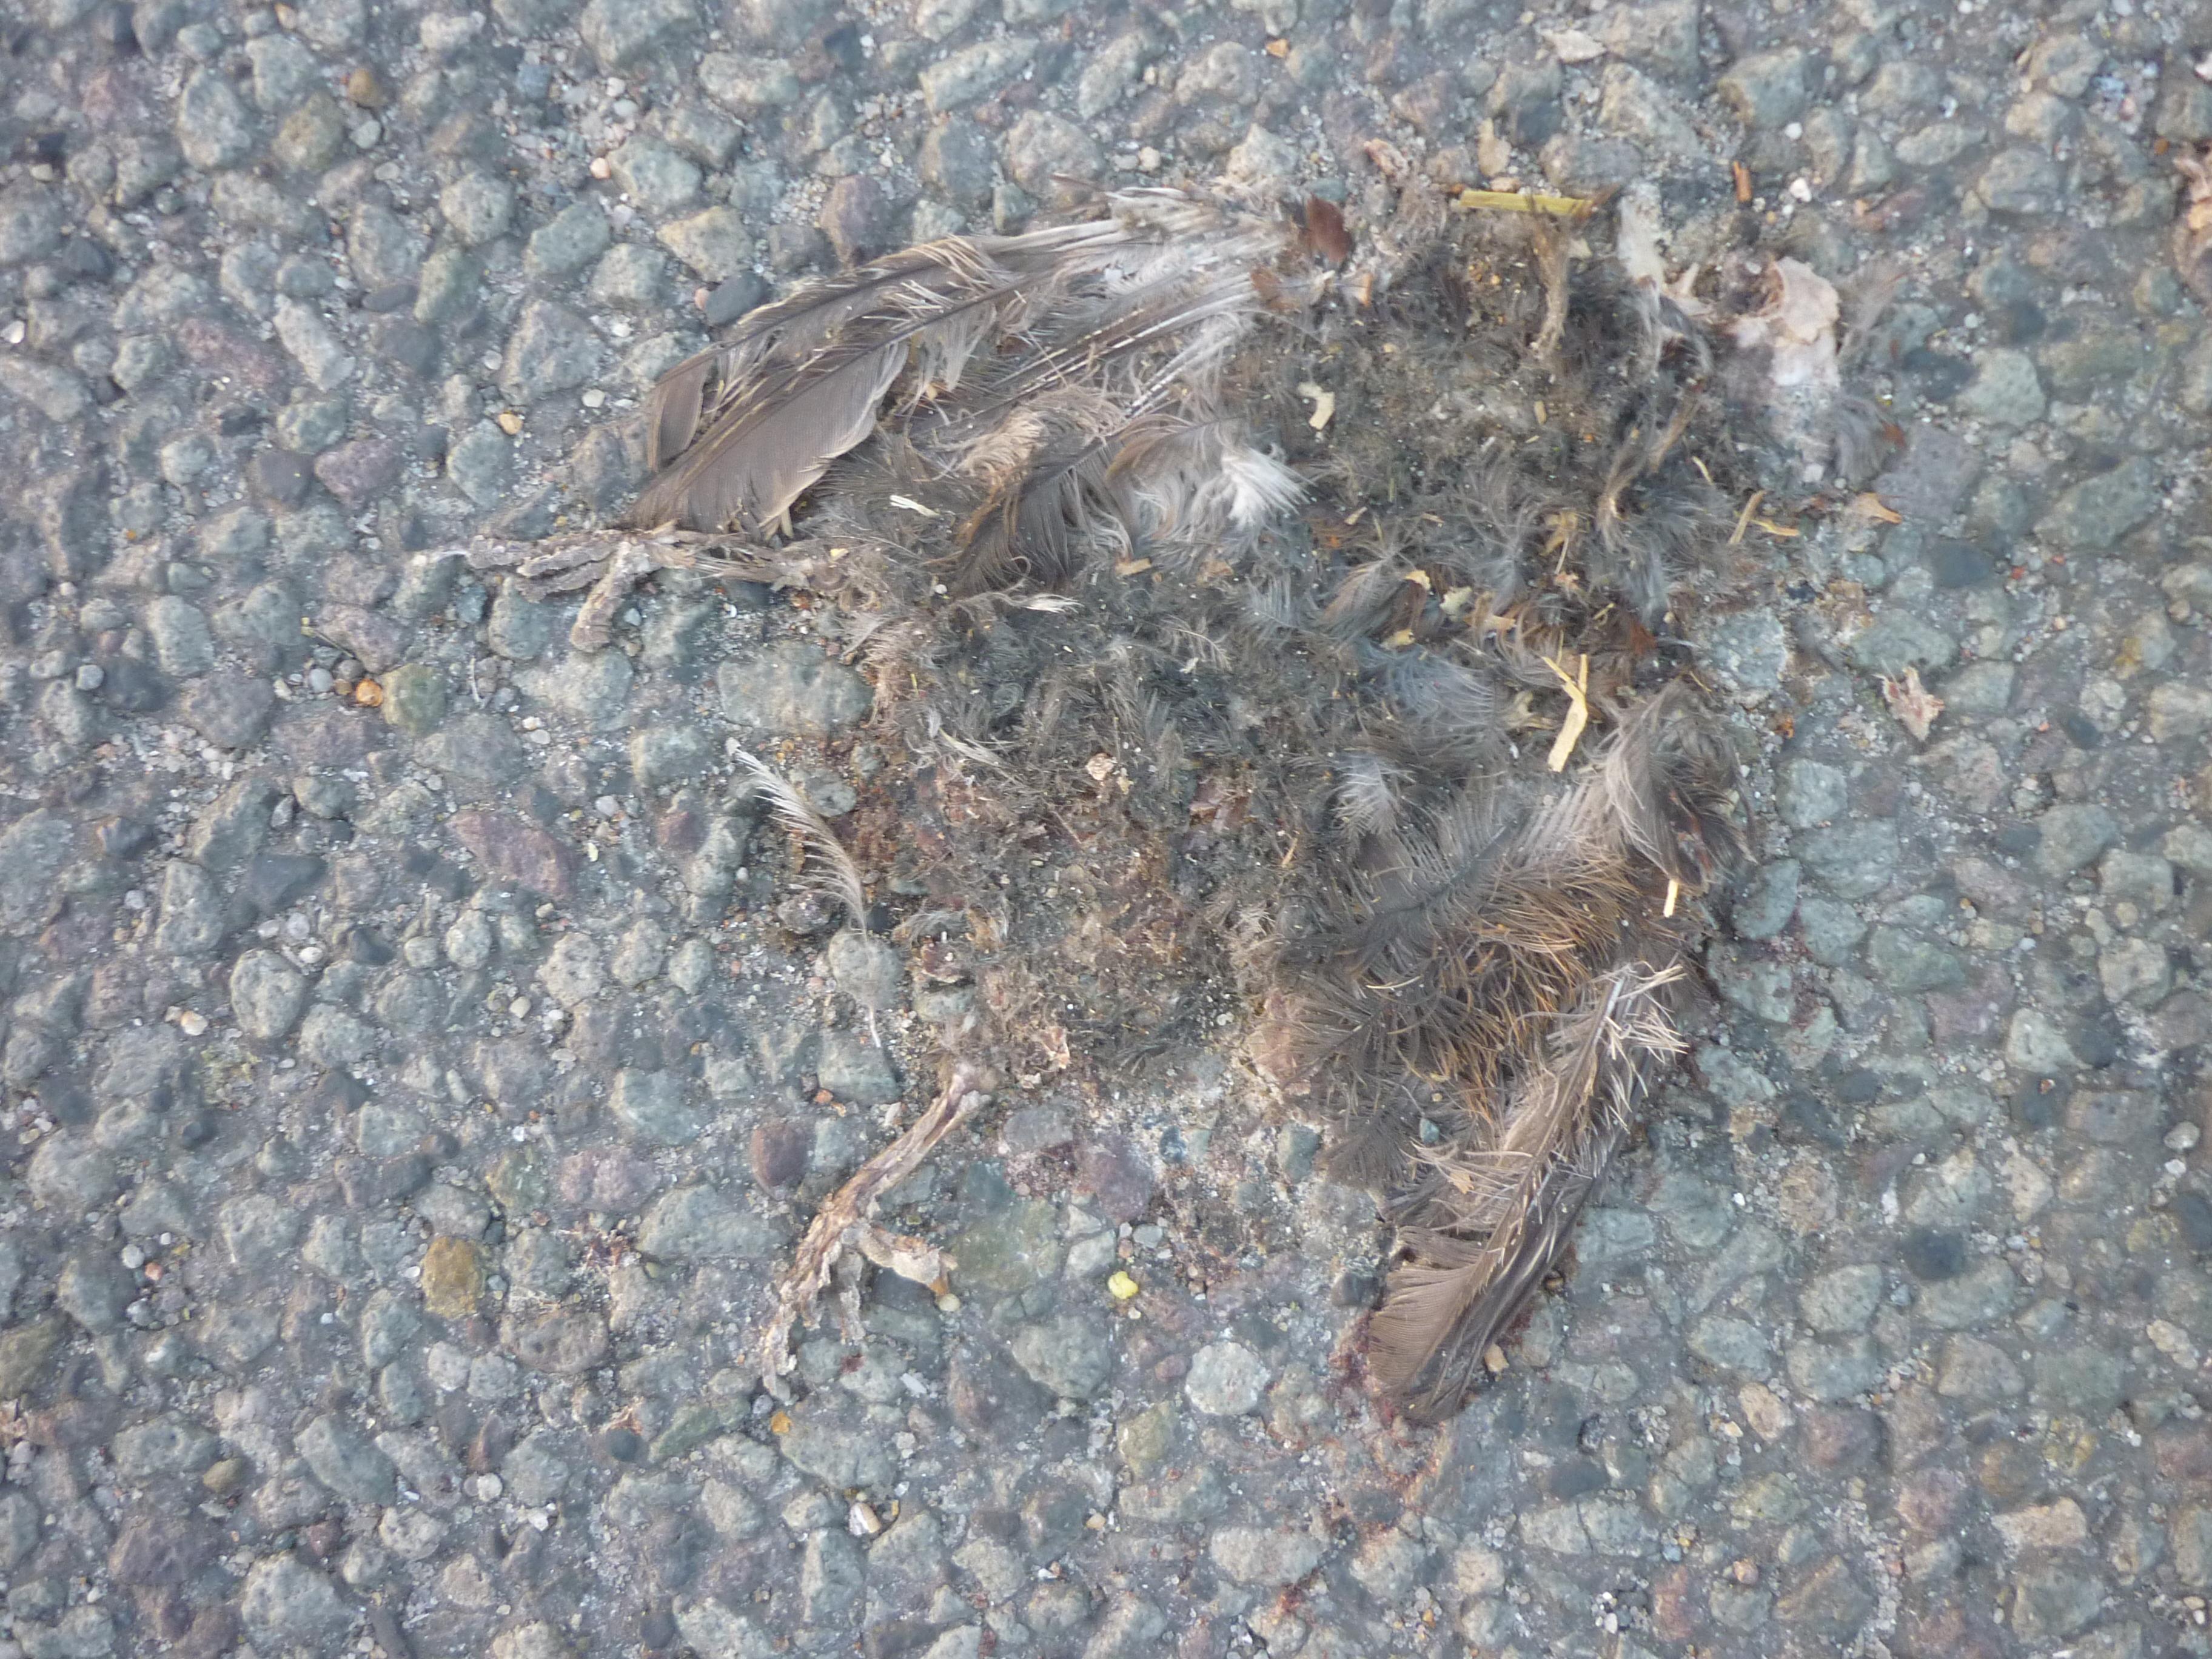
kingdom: Animalia
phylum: Chordata
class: Aves
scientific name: Aves
